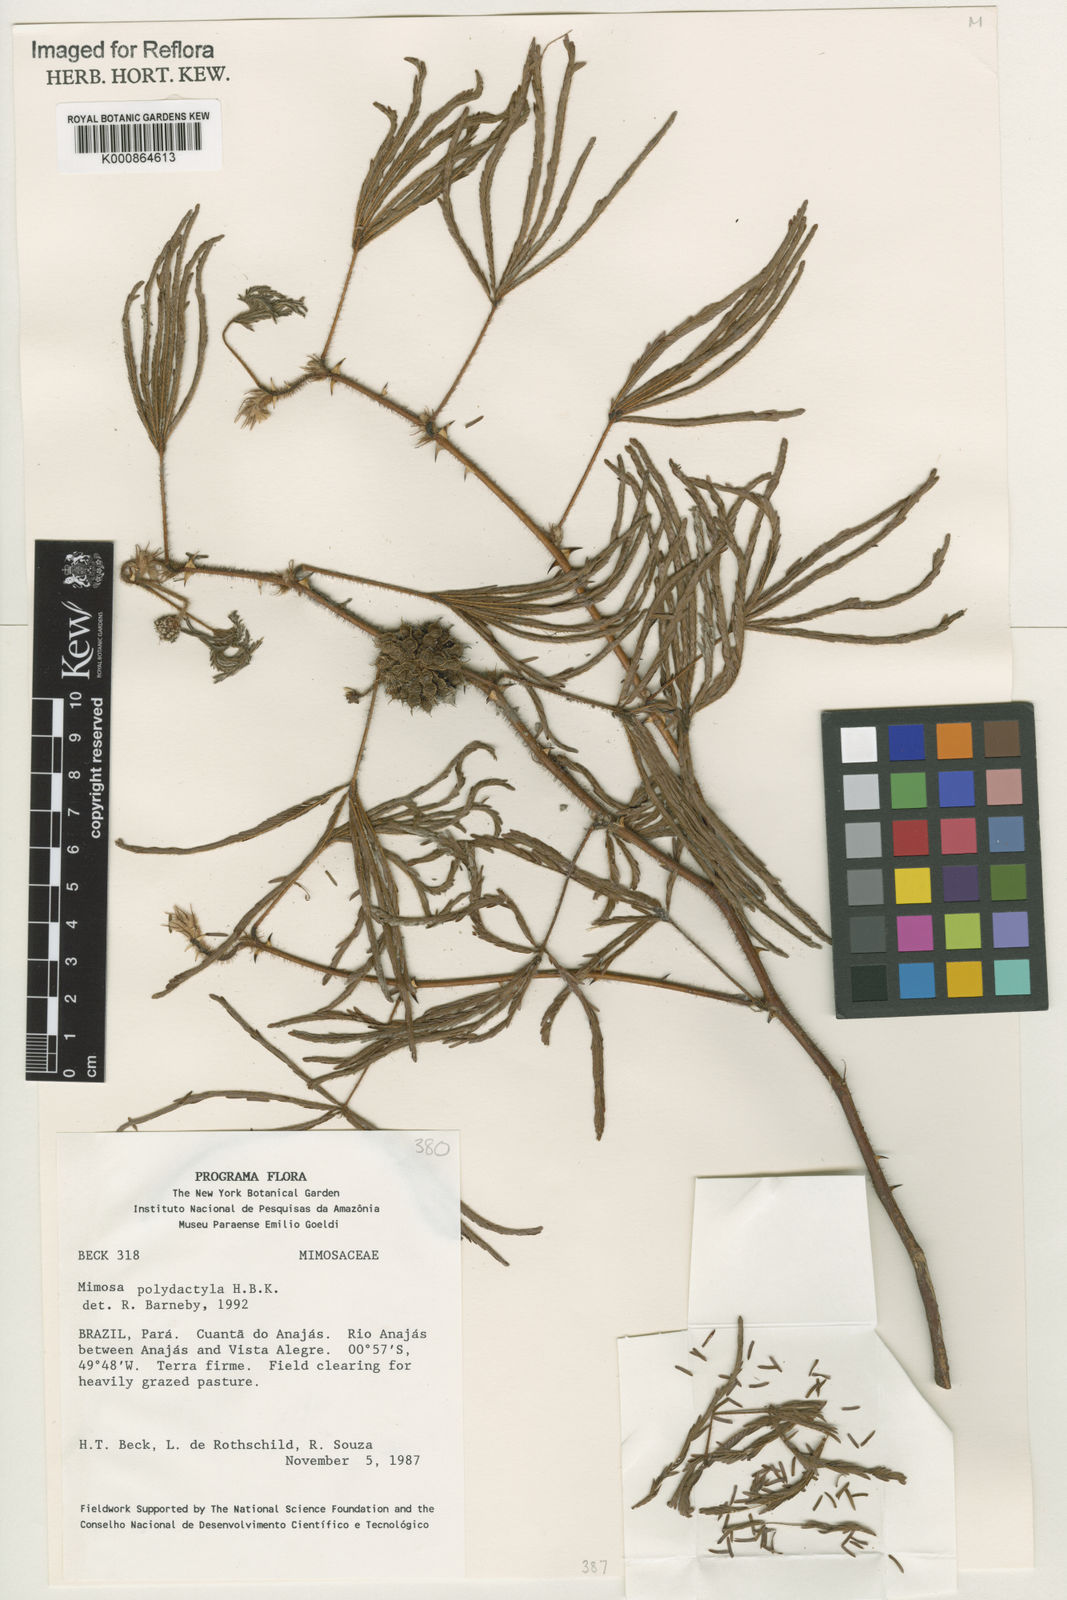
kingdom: Plantae
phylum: Tracheophyta
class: Magnoliopsida
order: Fabales
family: Fabaceae
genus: Mimosa
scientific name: Mimosa polydactyla
